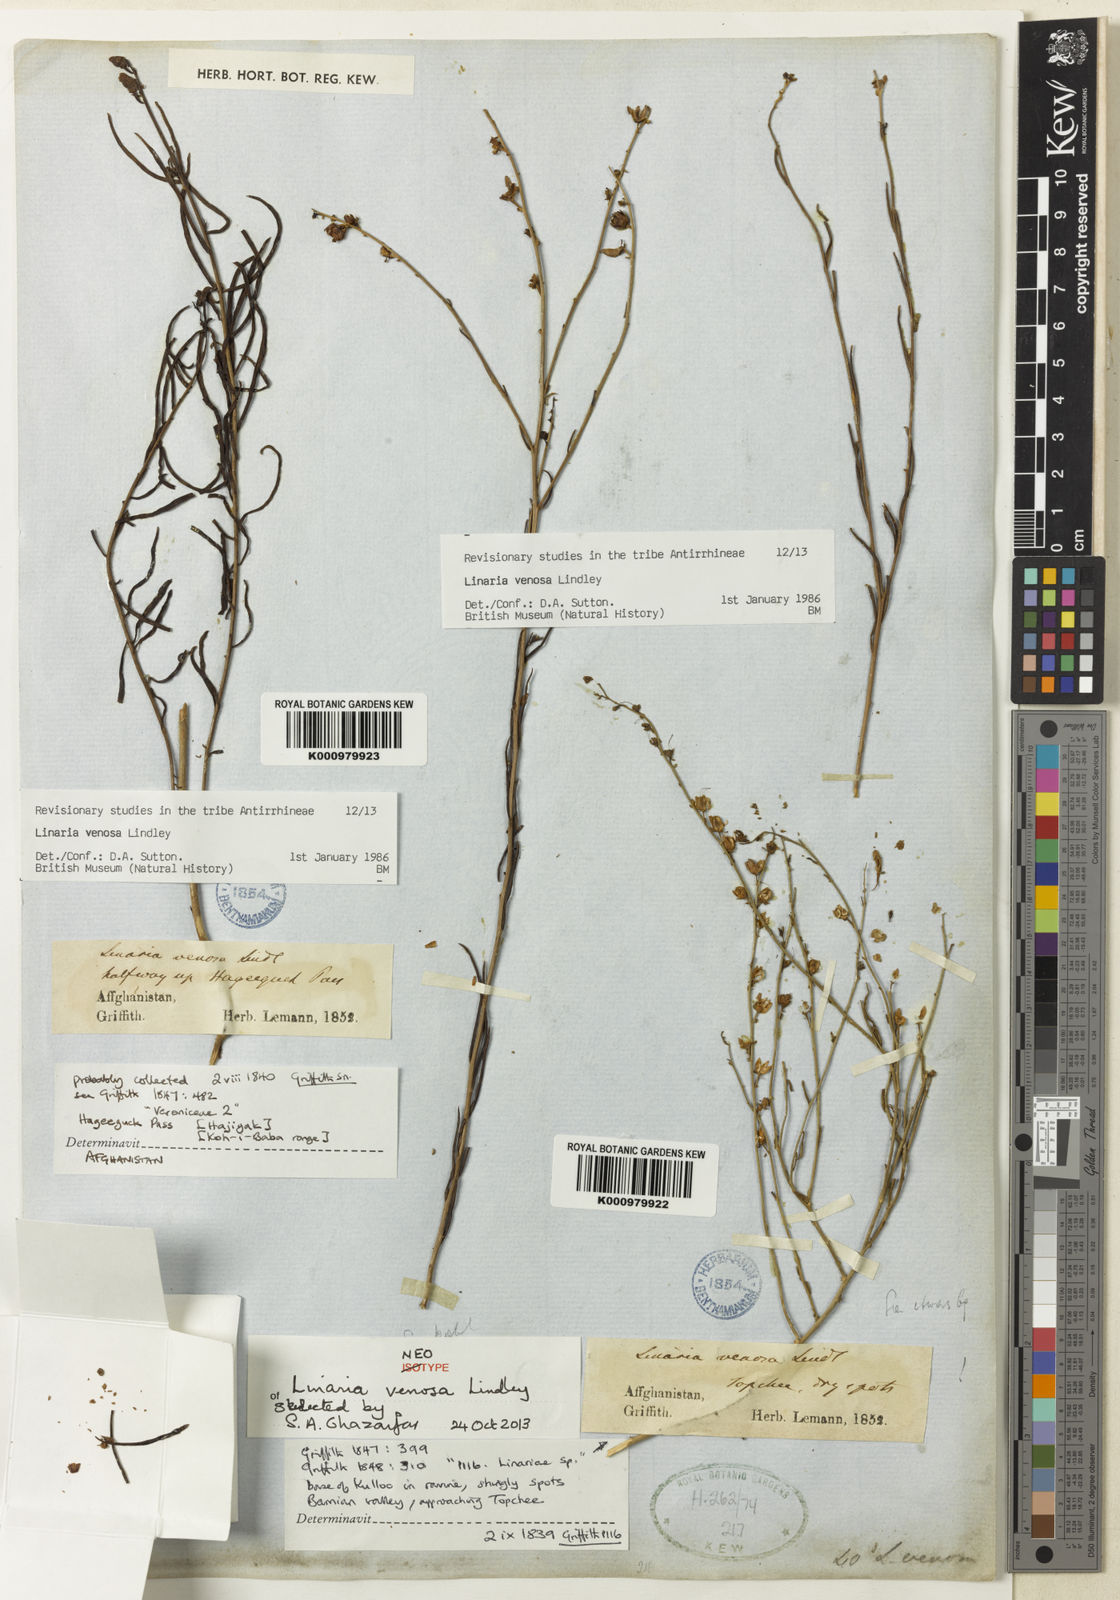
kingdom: Plantae
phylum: Tracheophyta
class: Magnoliopsida
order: Lamiales
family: Plantaginaceae
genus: Linaria
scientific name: Linaria venosa
